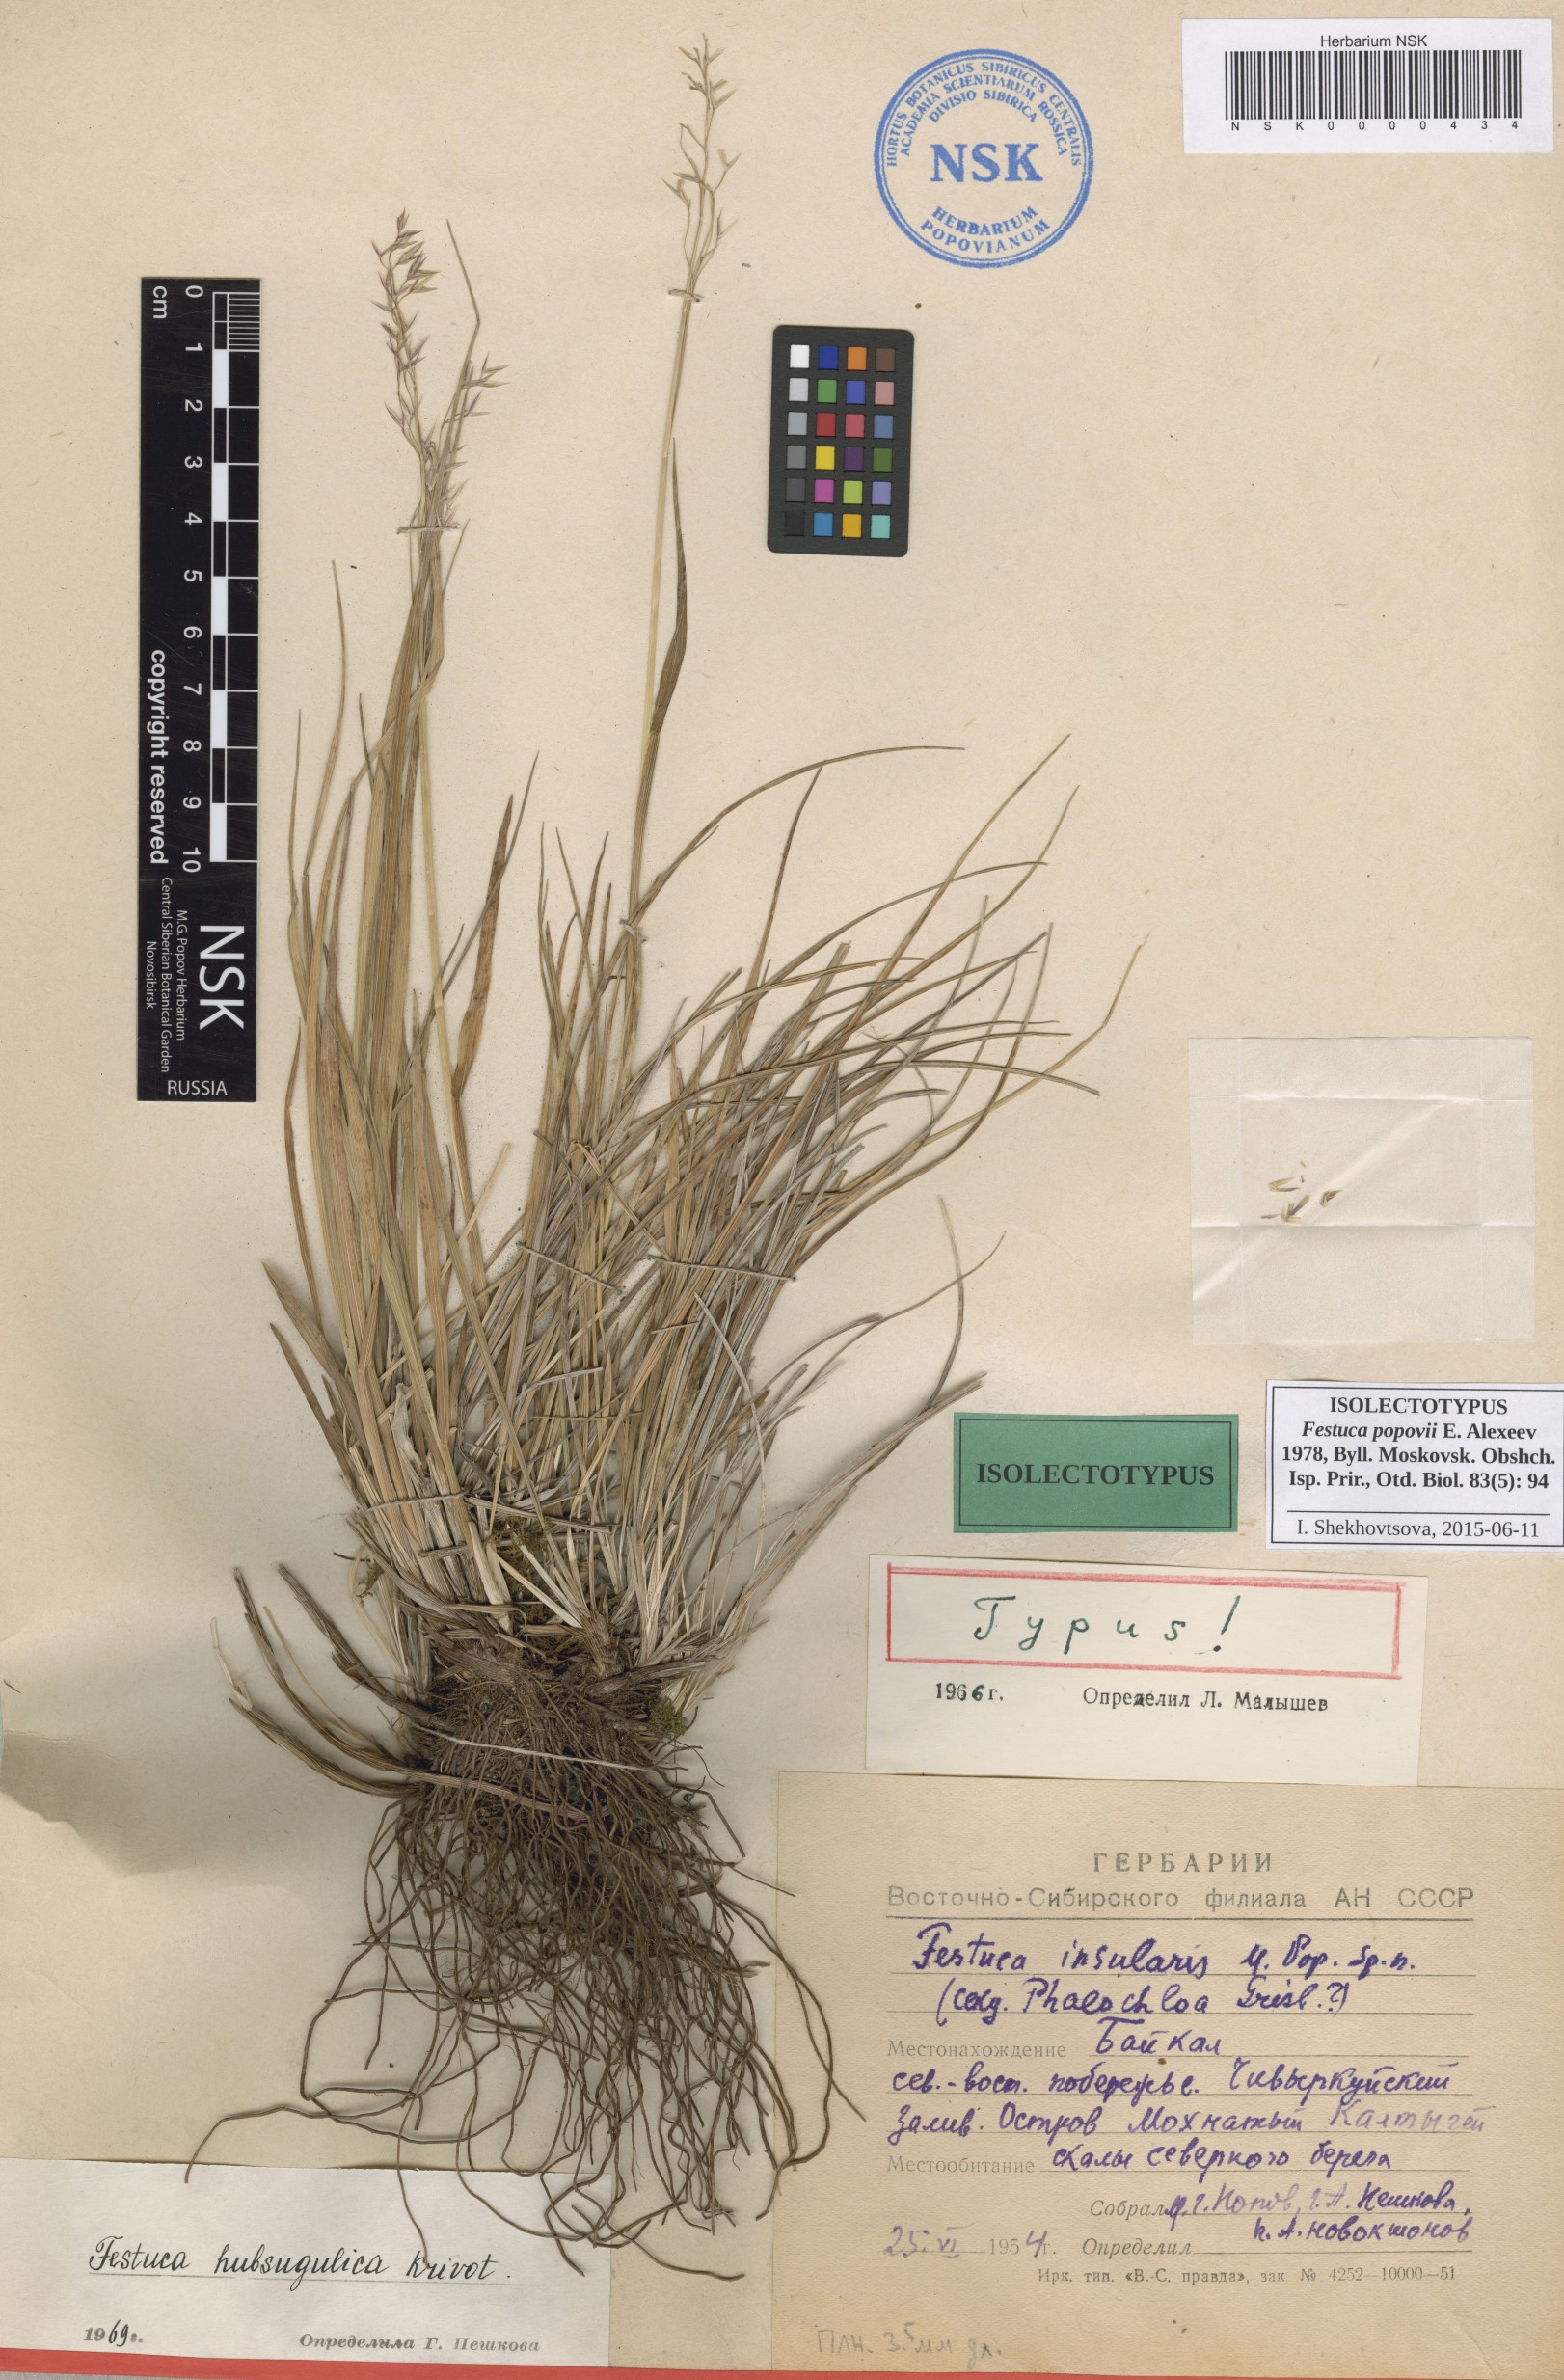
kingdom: Plantae
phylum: Tracheophyta
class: Liliopsida
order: Poales
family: Poaceae
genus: Festuca
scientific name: Festuca popovii
